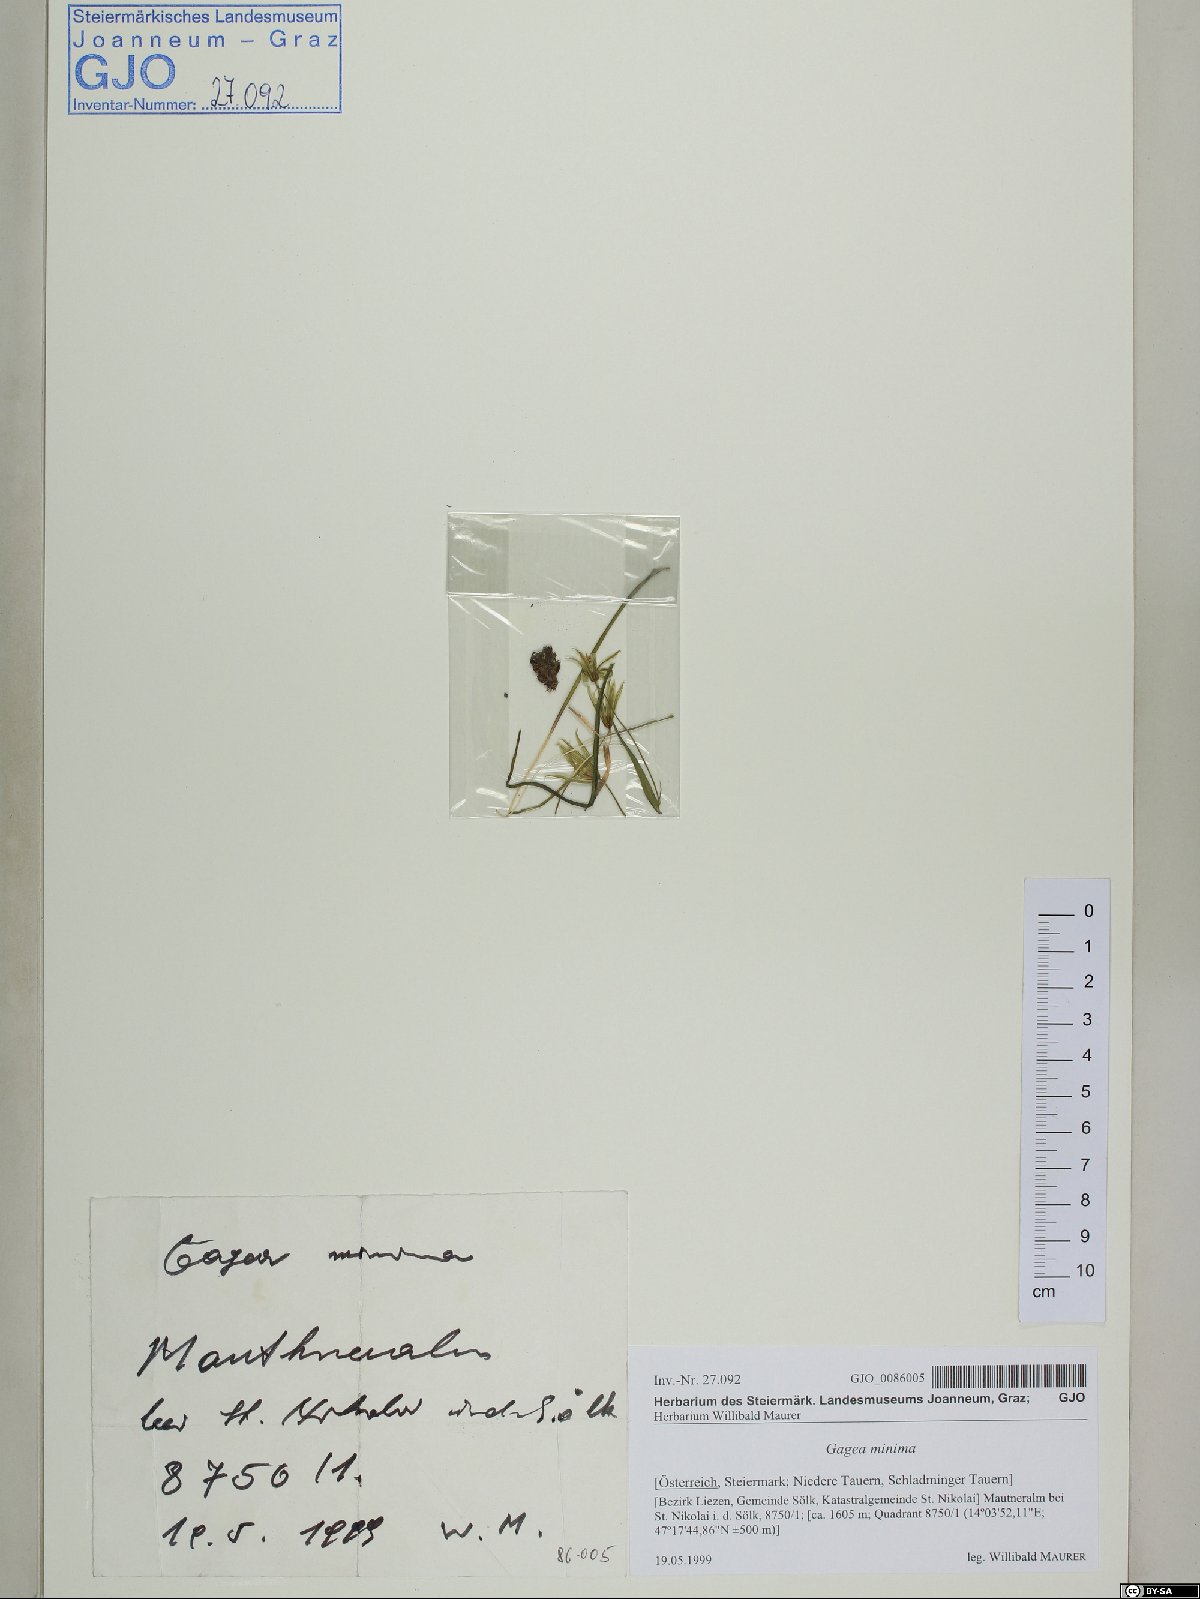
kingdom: Plantae
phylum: Tracheophyta
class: Liliopsida
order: Liliales
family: Liliaceae
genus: Gagea
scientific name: Gagea minima
